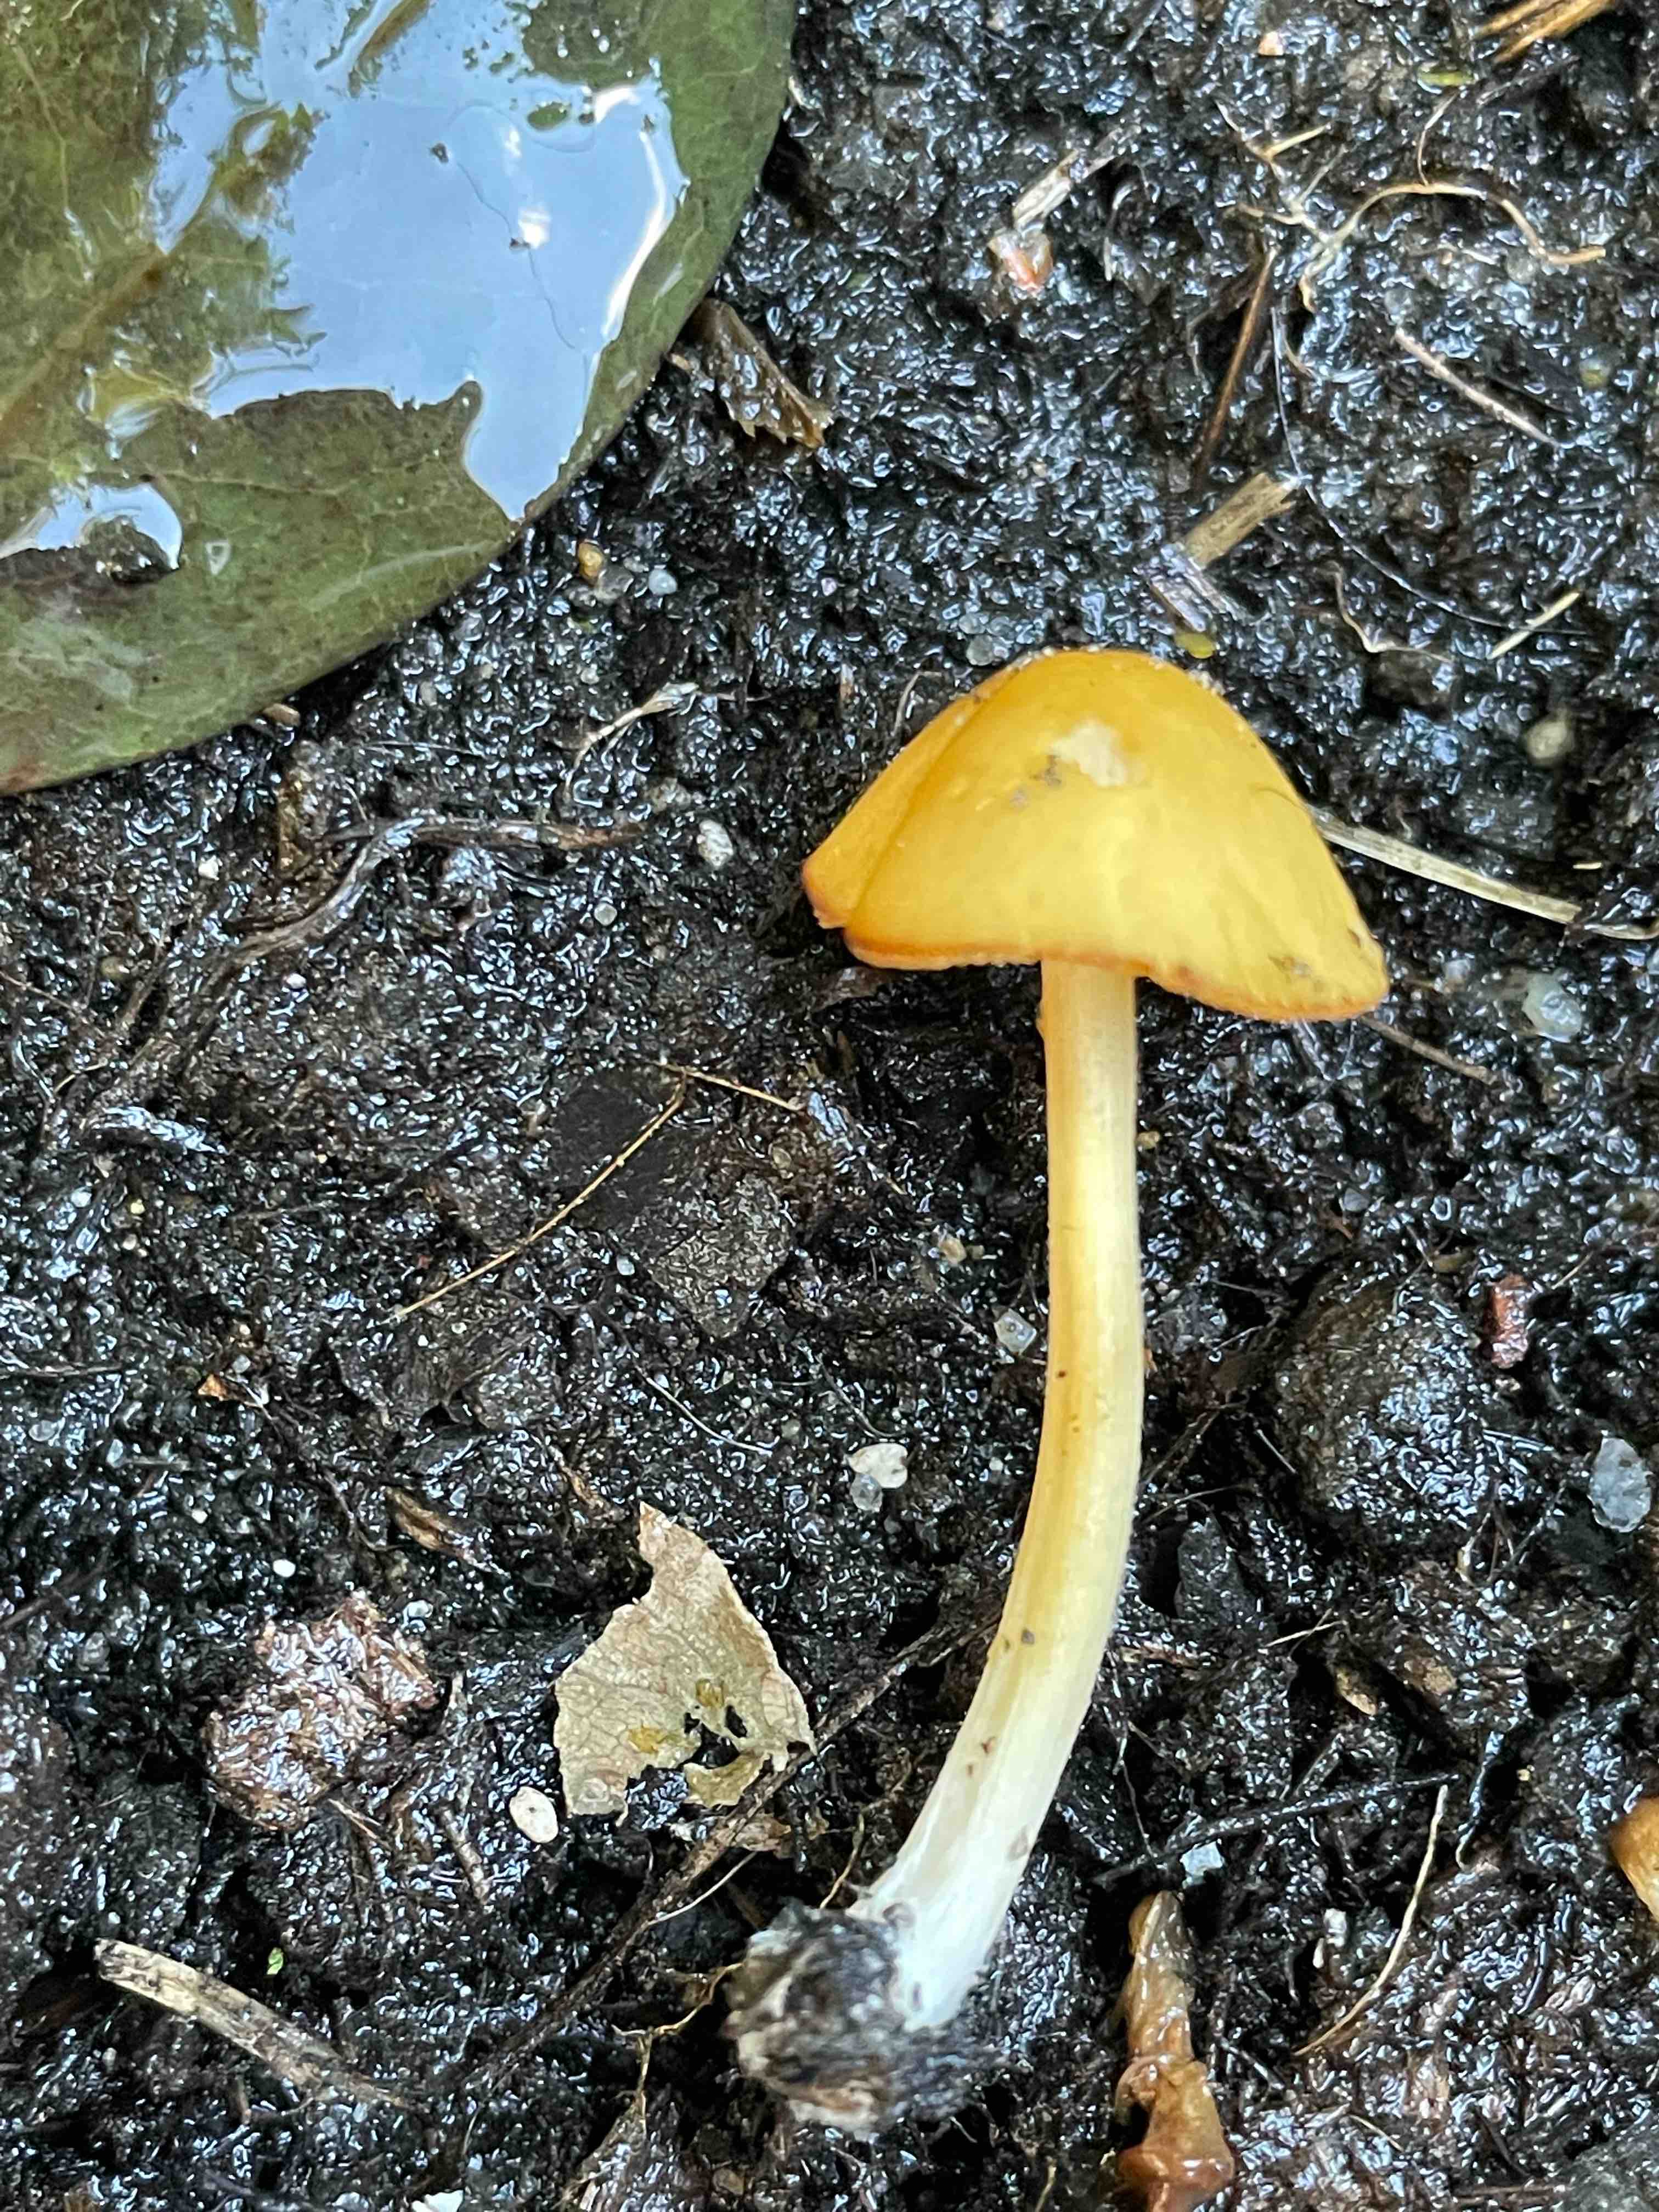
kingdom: Fungi
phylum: Basidiomycota
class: Agaricomycetes
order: Agaricales
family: Bolbitiaceae
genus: Conocybe
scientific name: Conocybe aurea
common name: gylden keglehat
